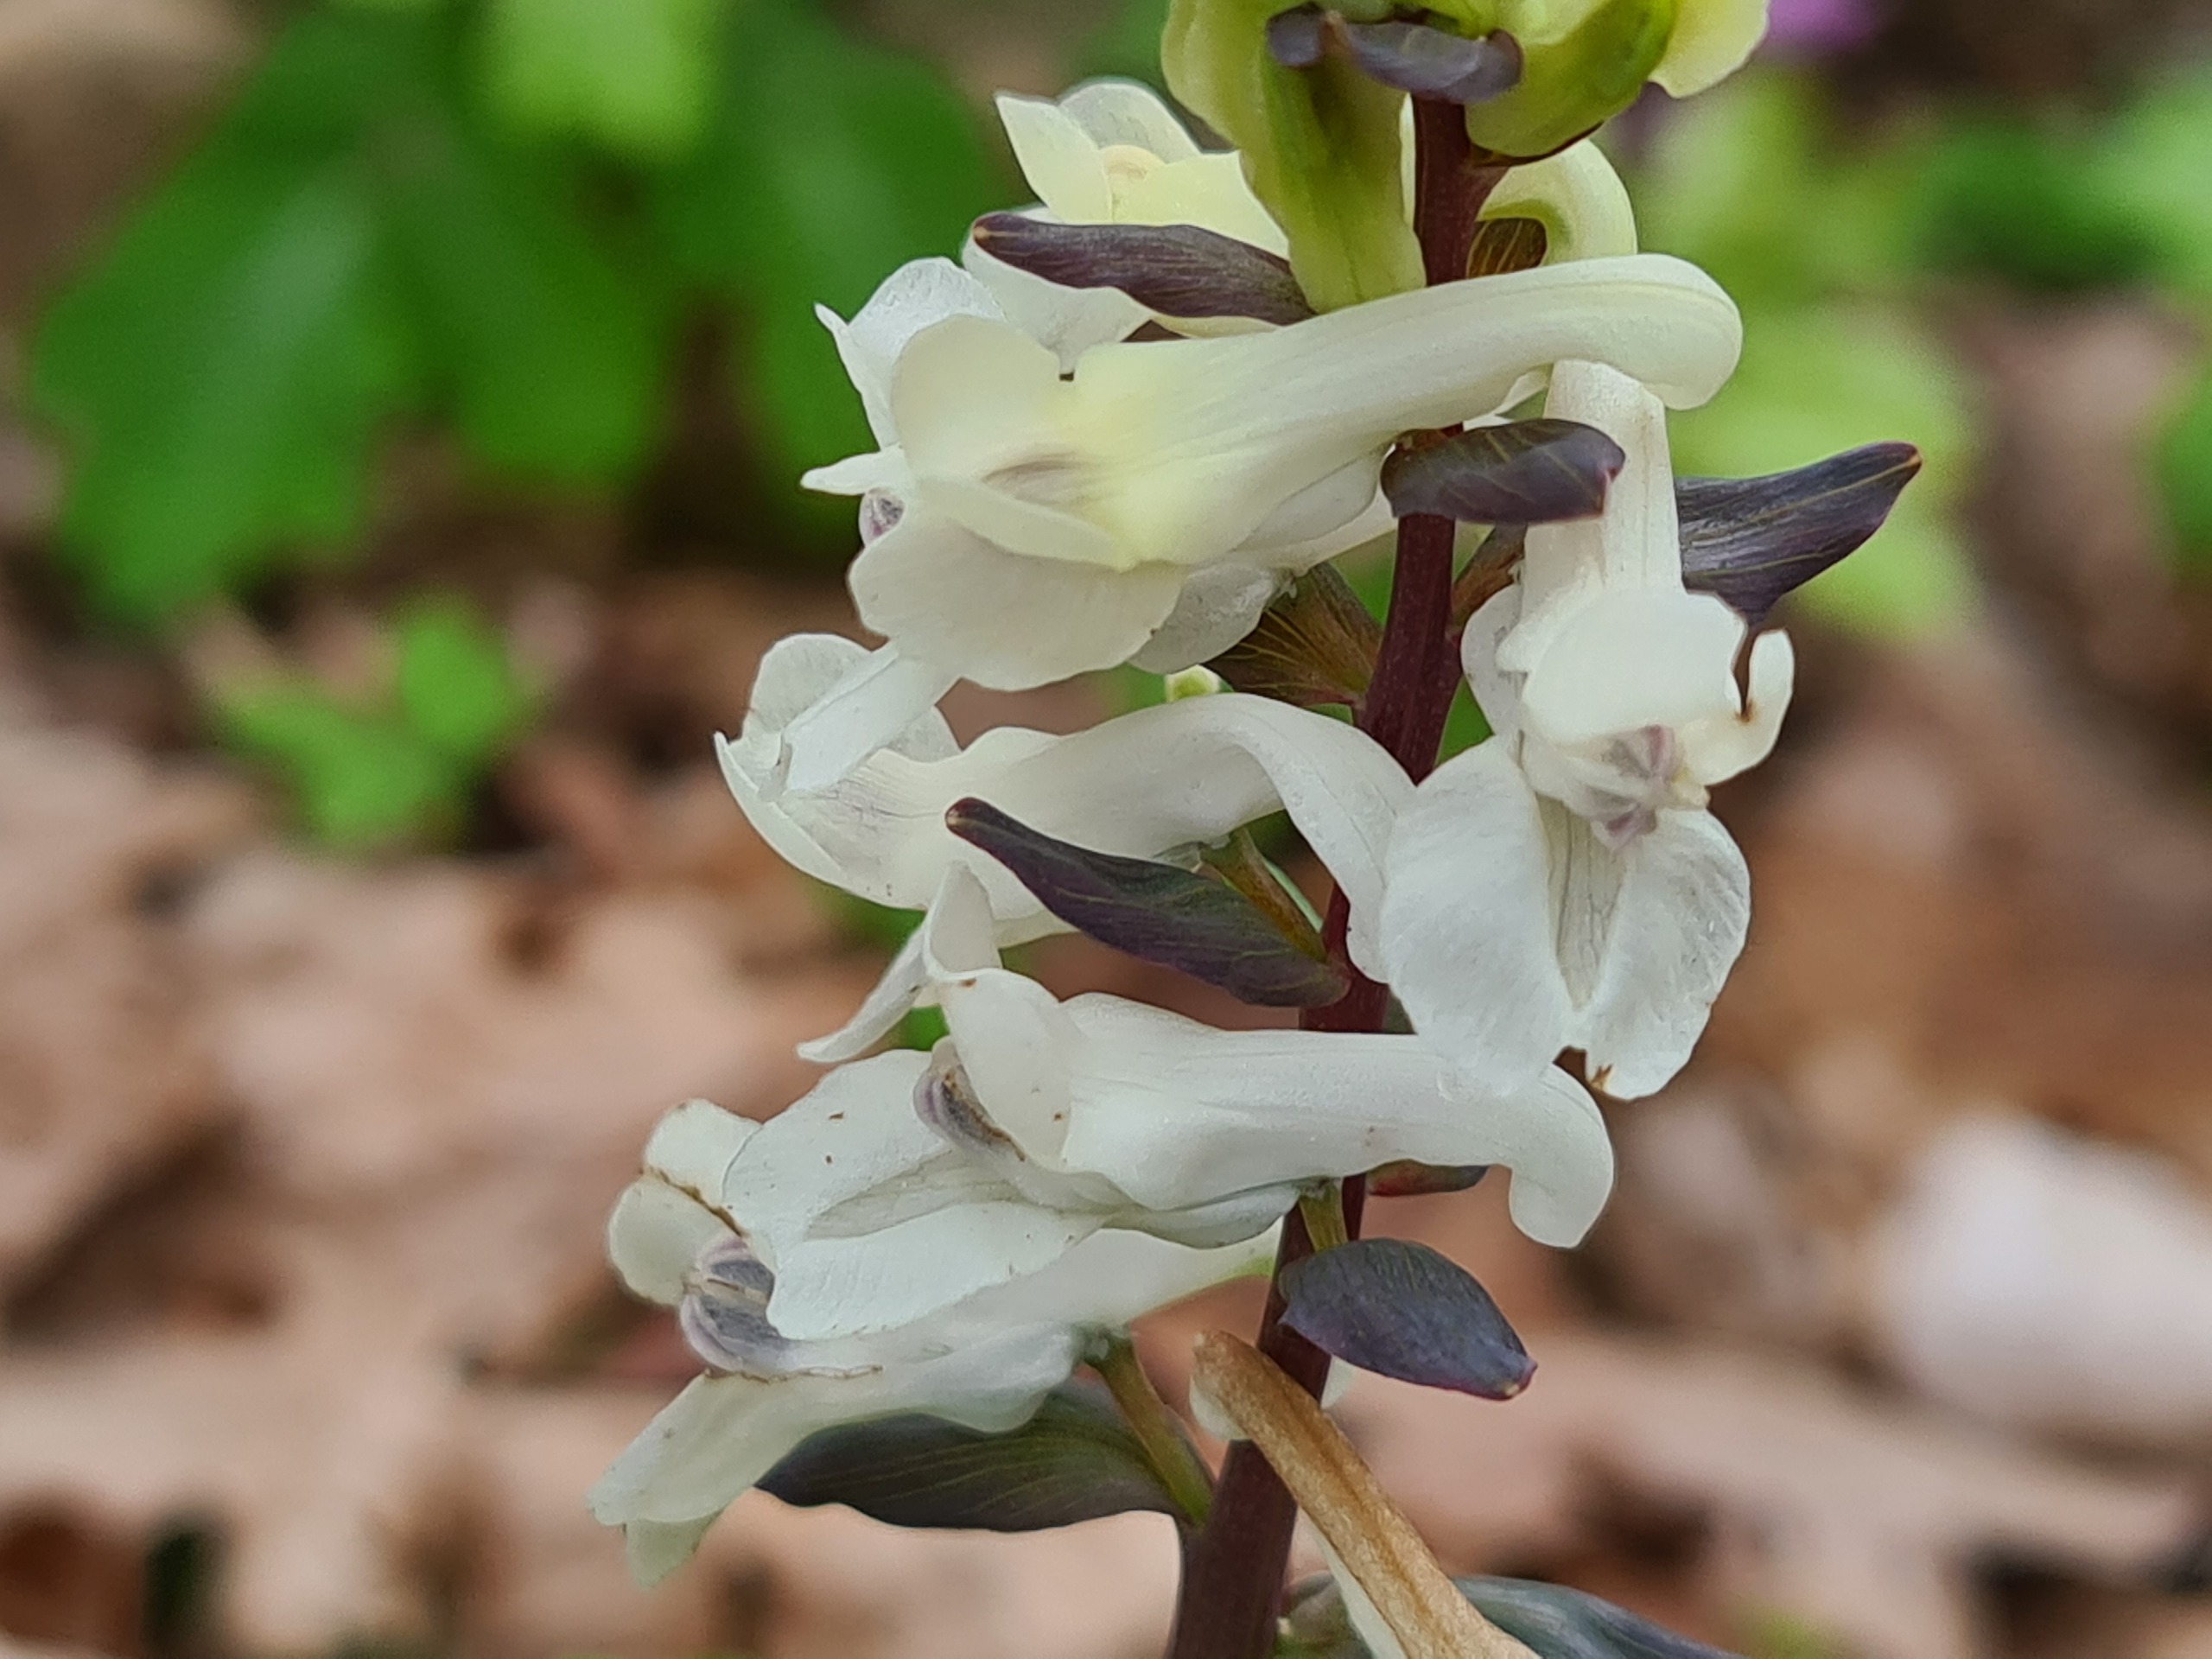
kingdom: Plantae
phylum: Tracheophyta
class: Magnoliopsida
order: Ranunculales
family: Papaveraceae
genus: Corydalis
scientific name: Corydalis cava
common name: Hulrodet lærkespore
